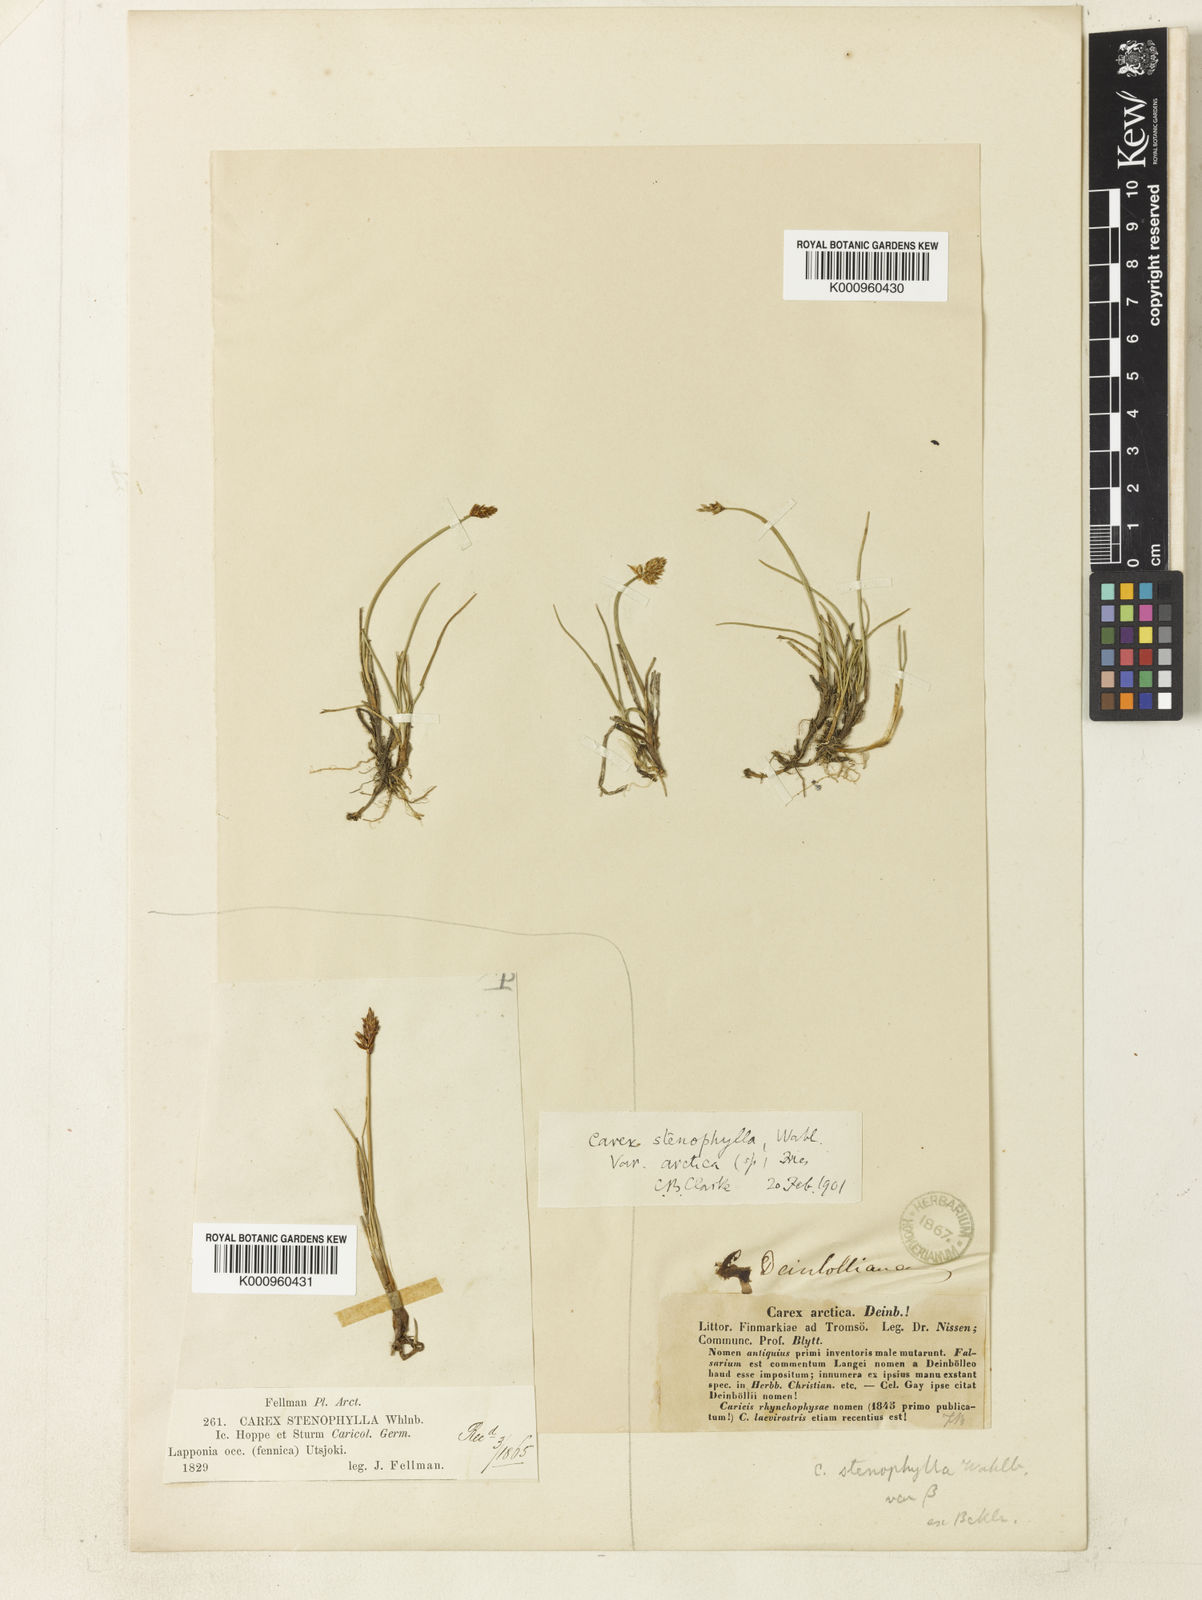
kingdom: Plantae
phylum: Tracheophyta
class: Liliopsida
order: Poales
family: Cyperaceae
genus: Carex
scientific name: Carex dioica
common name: Dioecious sedge
